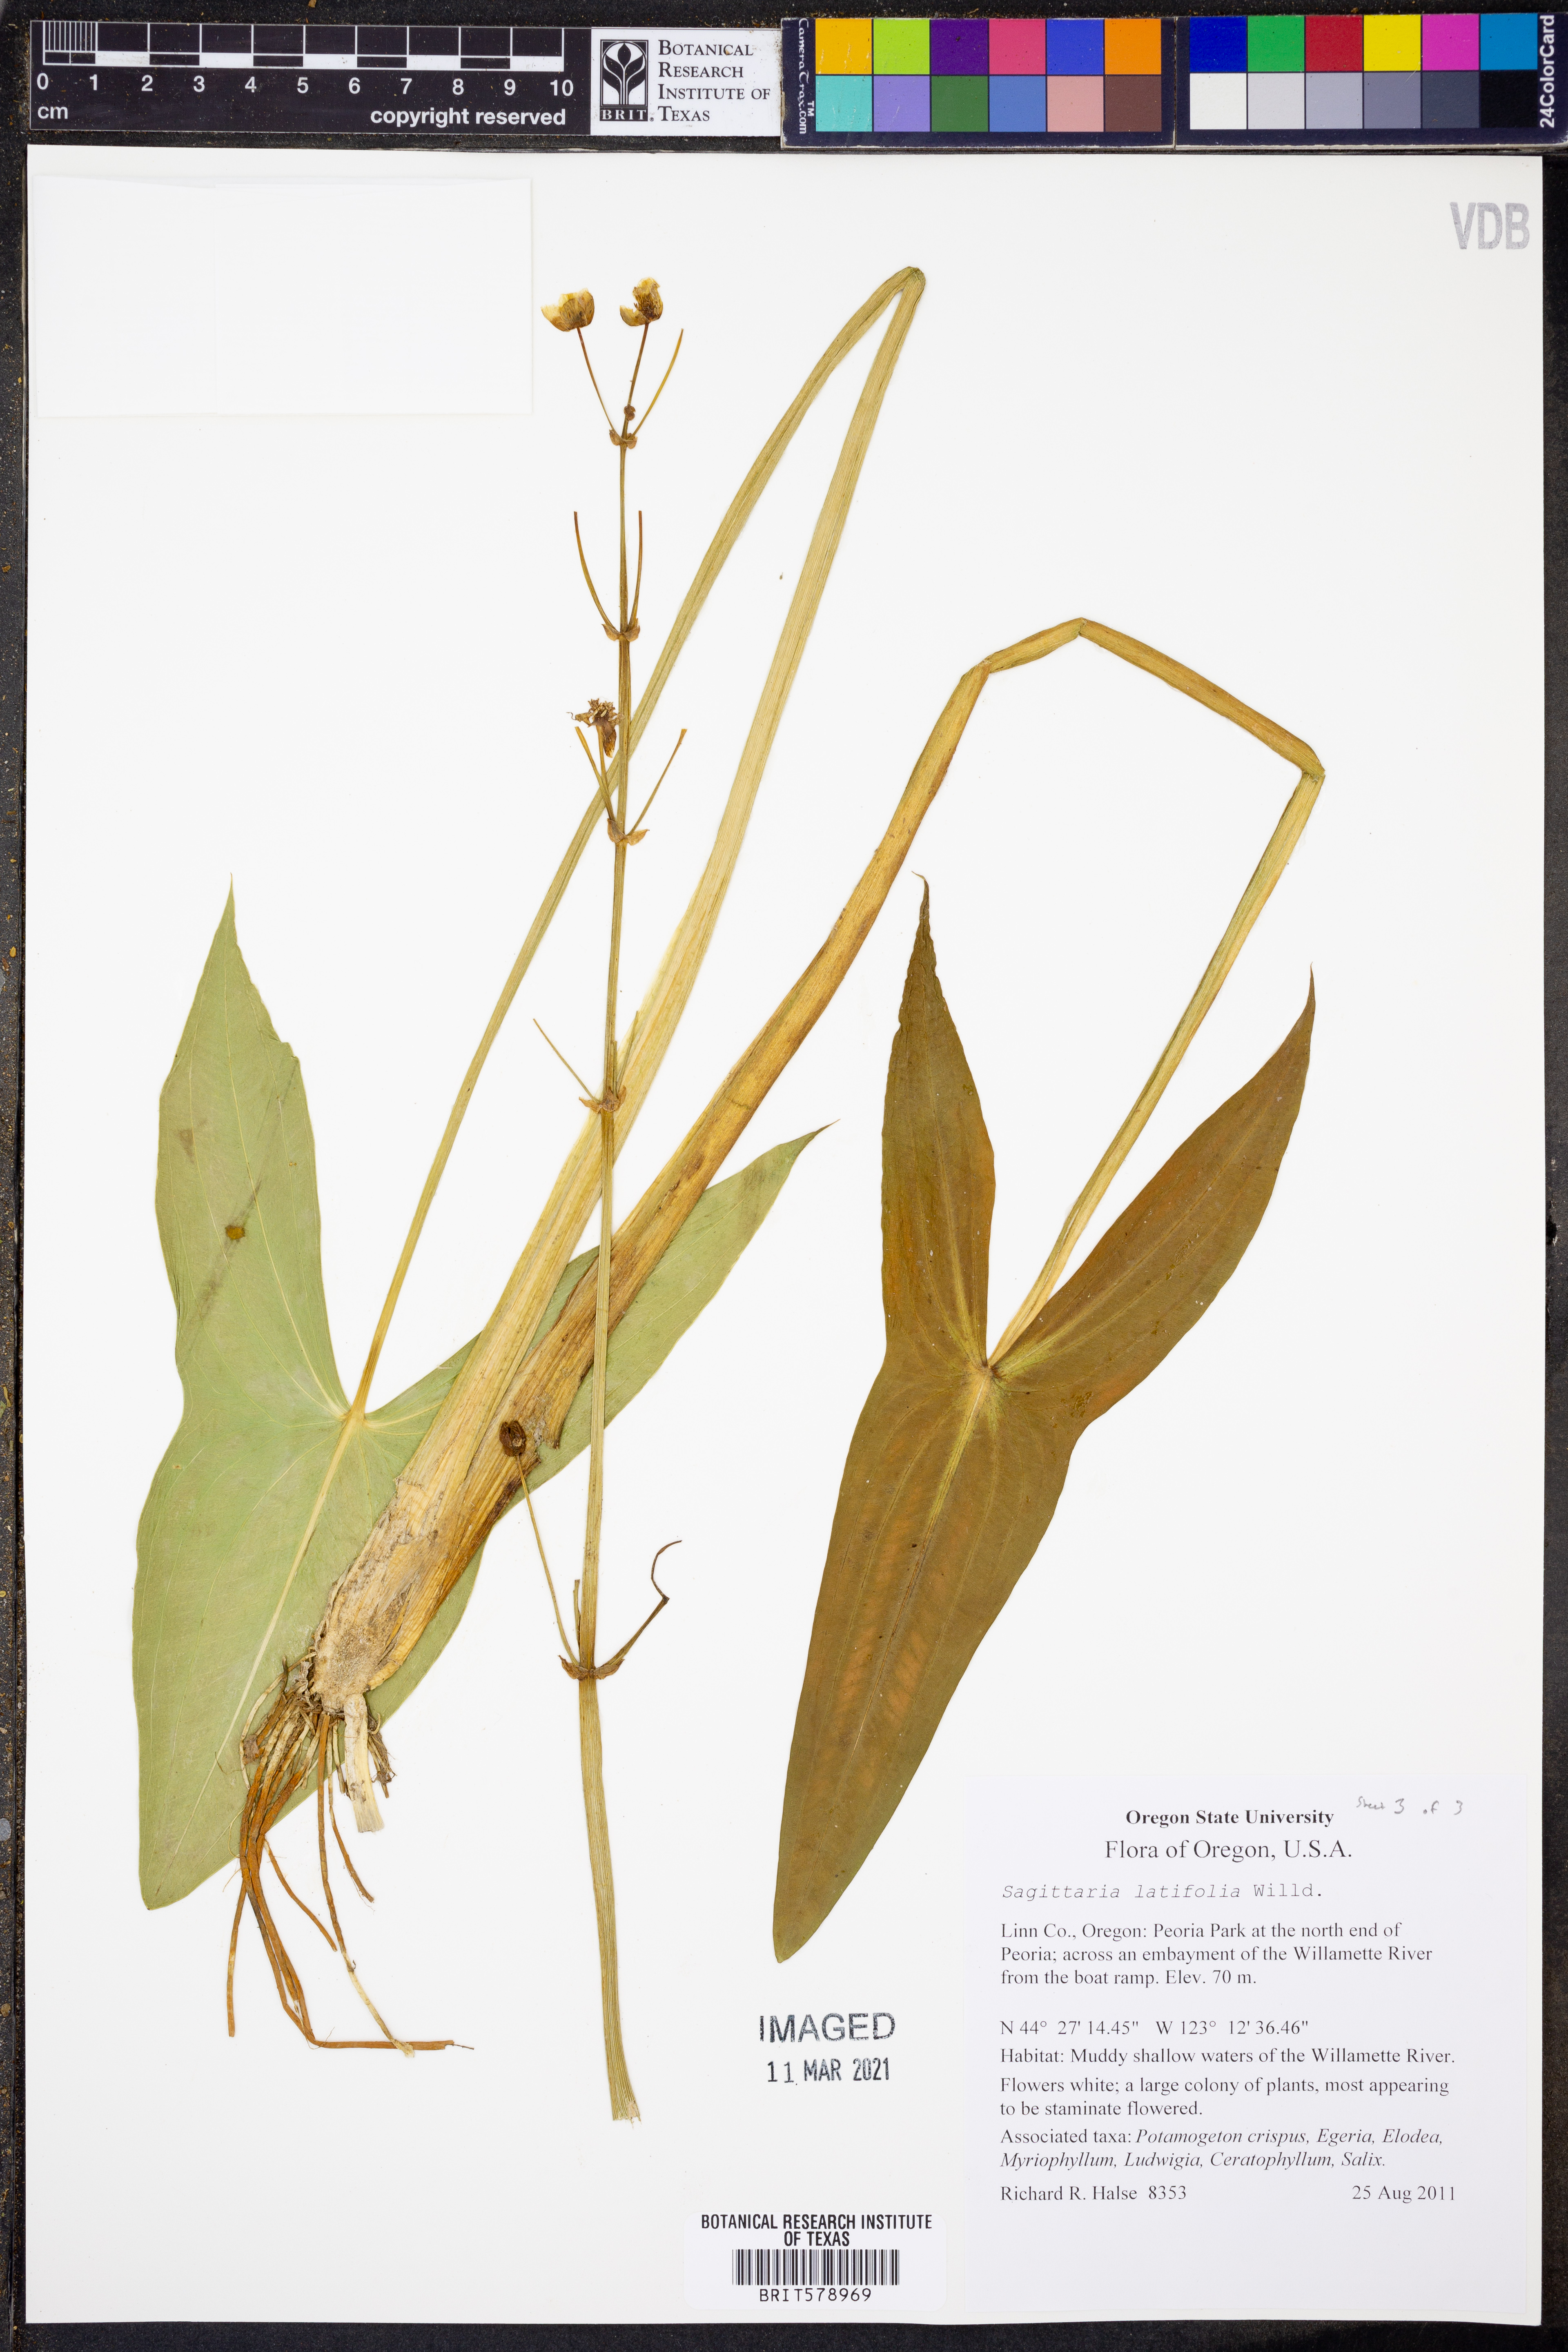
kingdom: Plantae
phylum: Tracheophyta
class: Liliopsida
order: Alismatales
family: Alismataceae
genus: Sagittaria
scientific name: Sagittaria latifolia
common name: Duck-potato
